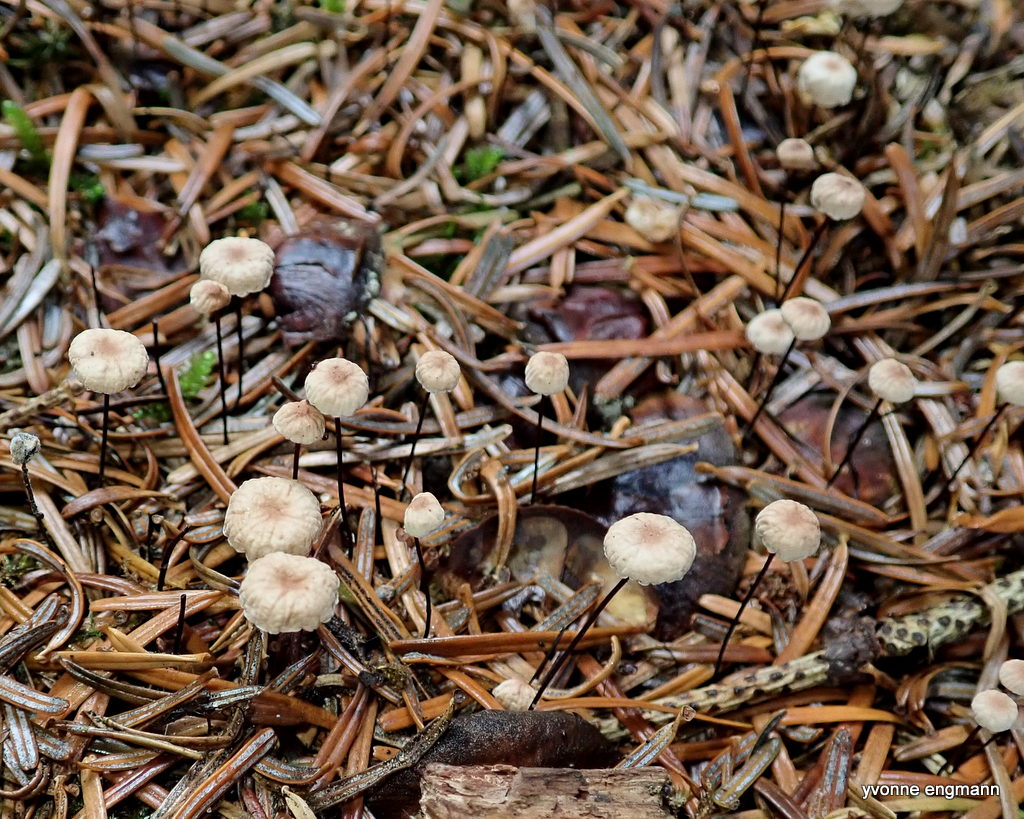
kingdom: Fungi
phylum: Basidiomycota
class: Agaricomycetes
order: Agaricales
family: Omphalotaceae
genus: Paragymnopus
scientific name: Paragymnopus perforans
